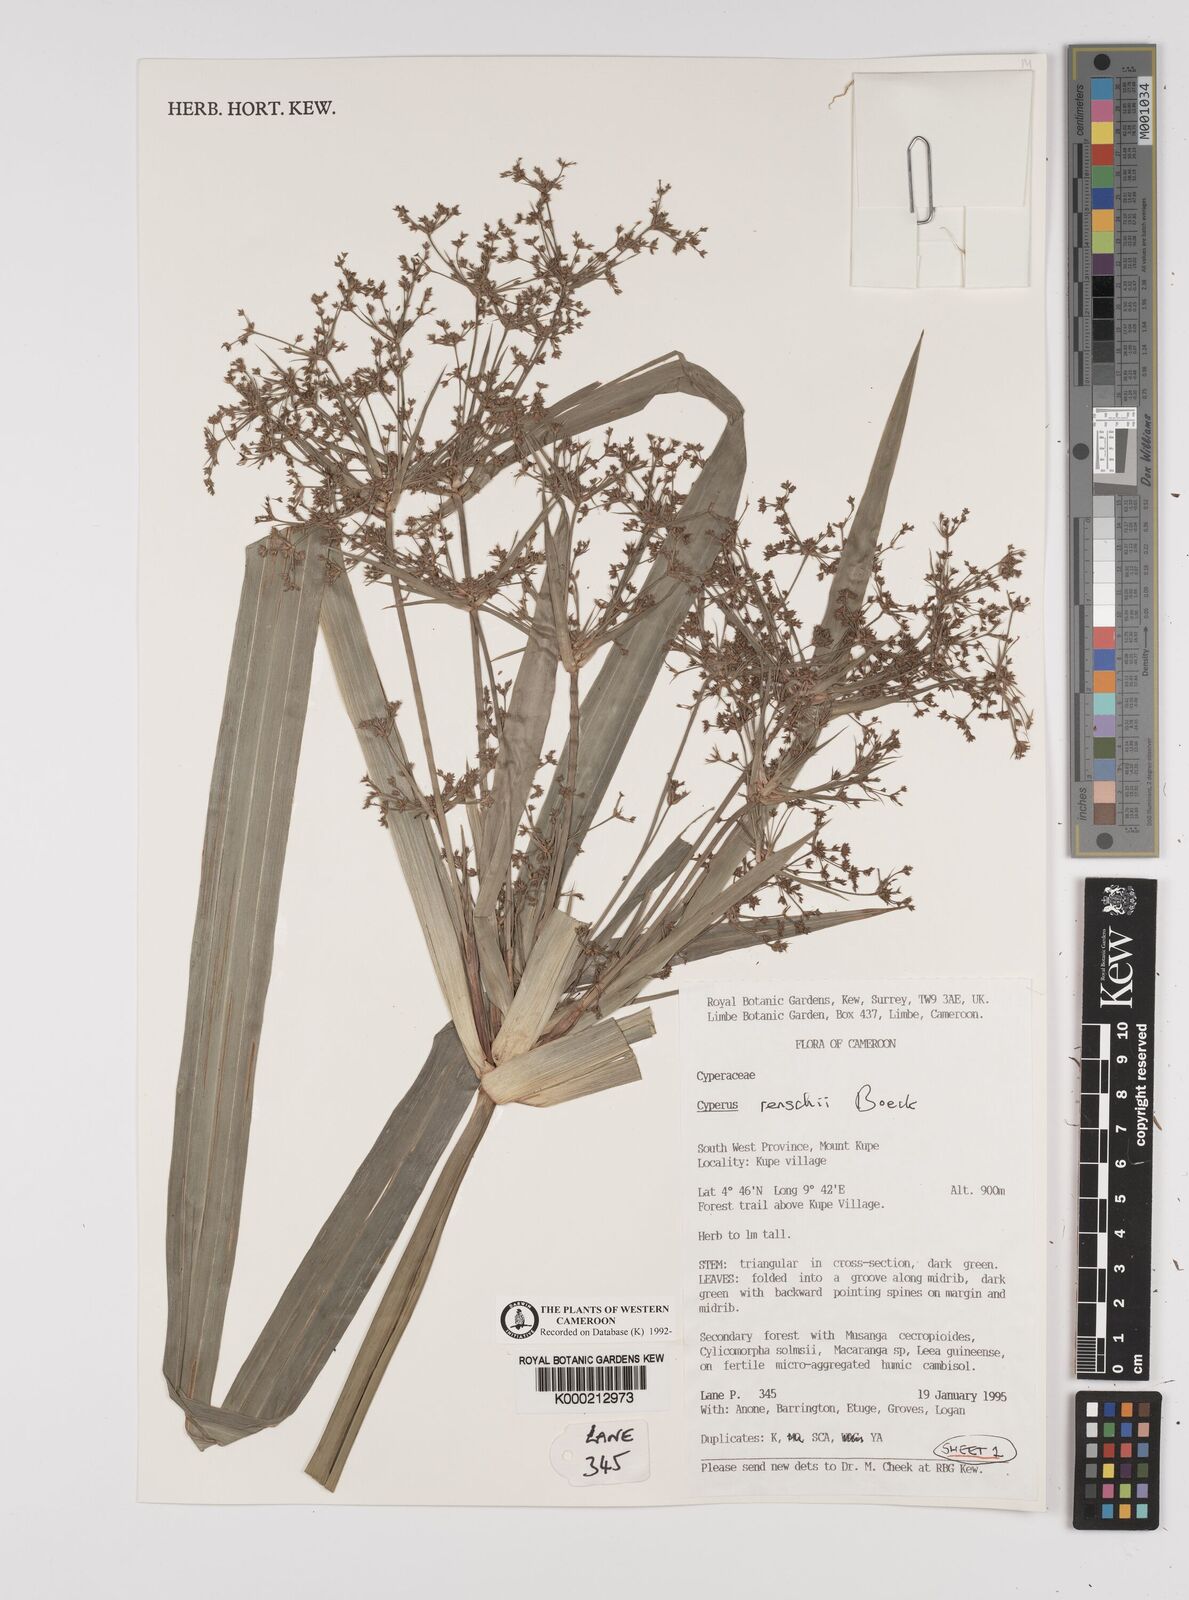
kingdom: Plantae
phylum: Tracheophyta
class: Liliopsida
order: Poales
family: Cyperaceae
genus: Cyperus
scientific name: Cyperus renschii
